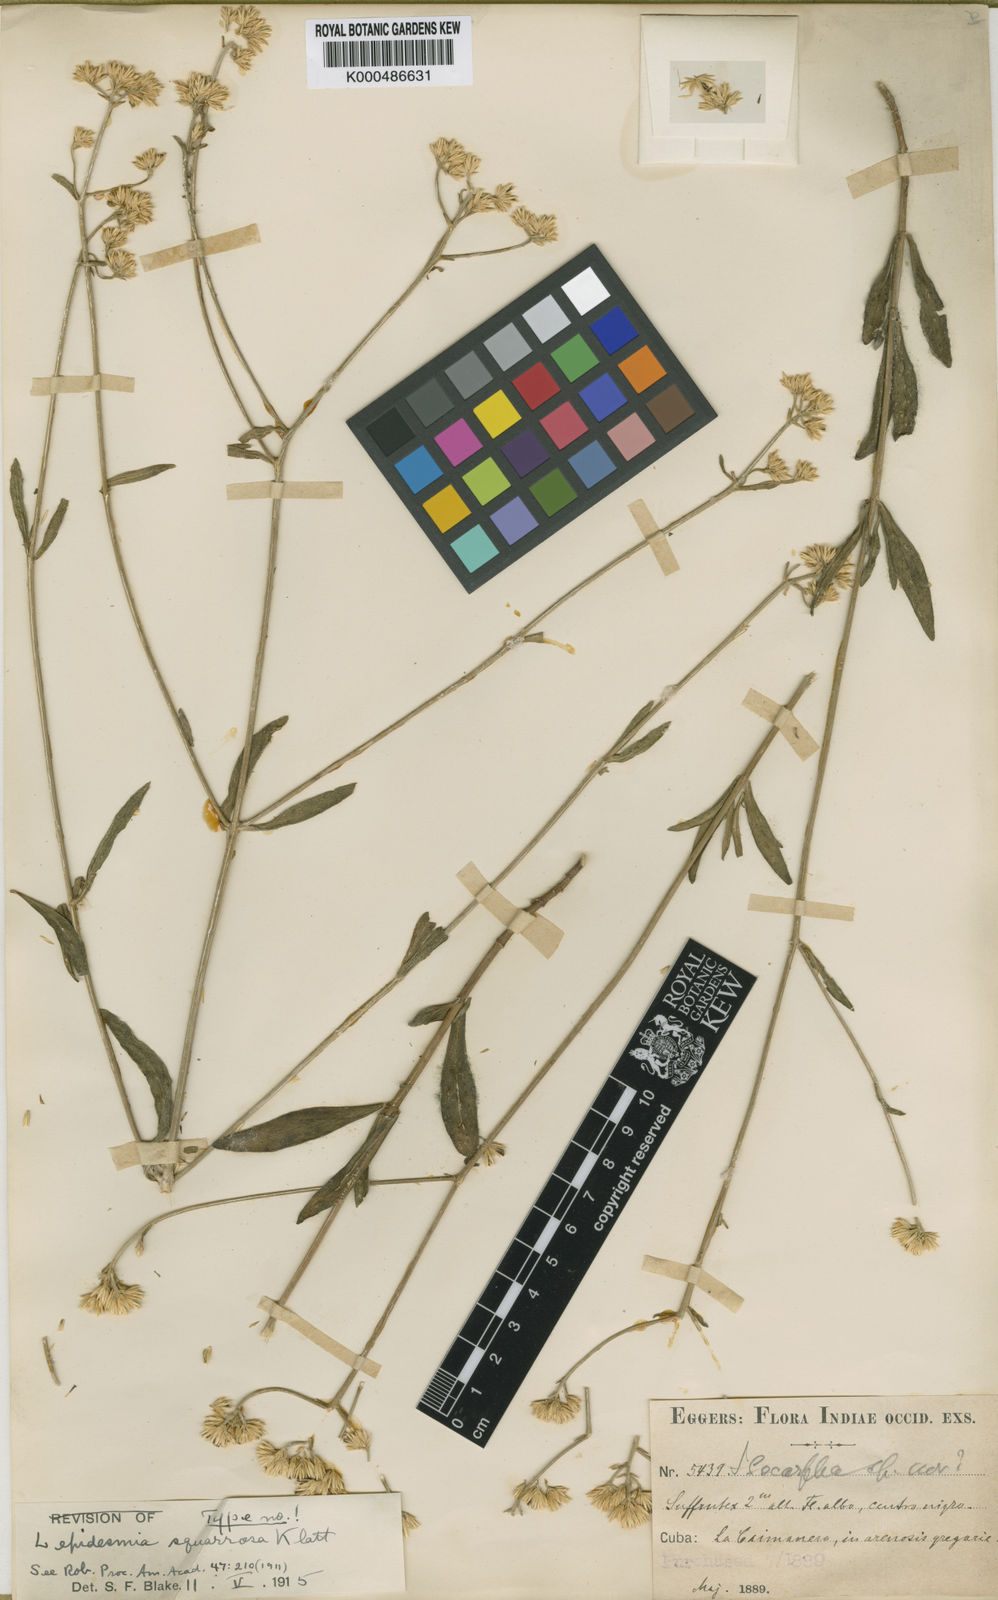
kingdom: Plantae
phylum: Tracheophyta
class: Magnoliopsida
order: Asterales
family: Asteraceae
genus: Lepidesmia
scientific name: Lepidesmia squarrosa
